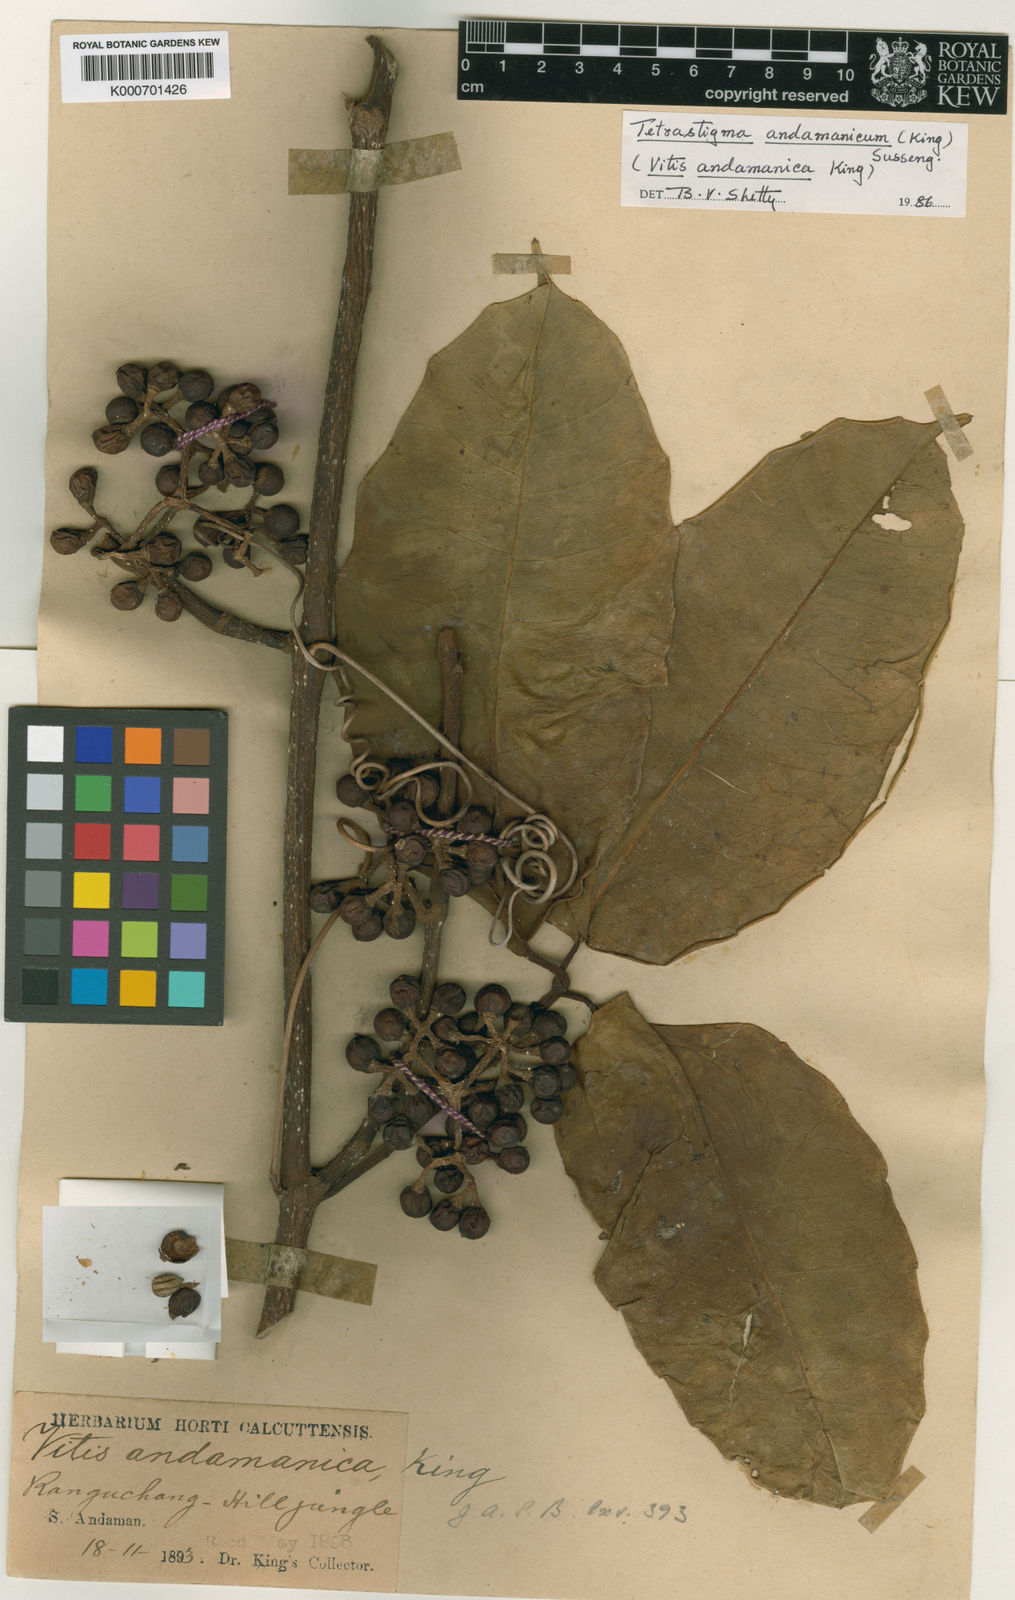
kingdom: Plantae
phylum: Tracheophyta
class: Magnoliopsida
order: Vitales
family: Vitaceae
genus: Tetrastigma
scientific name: Tetrastigma andamanicum
